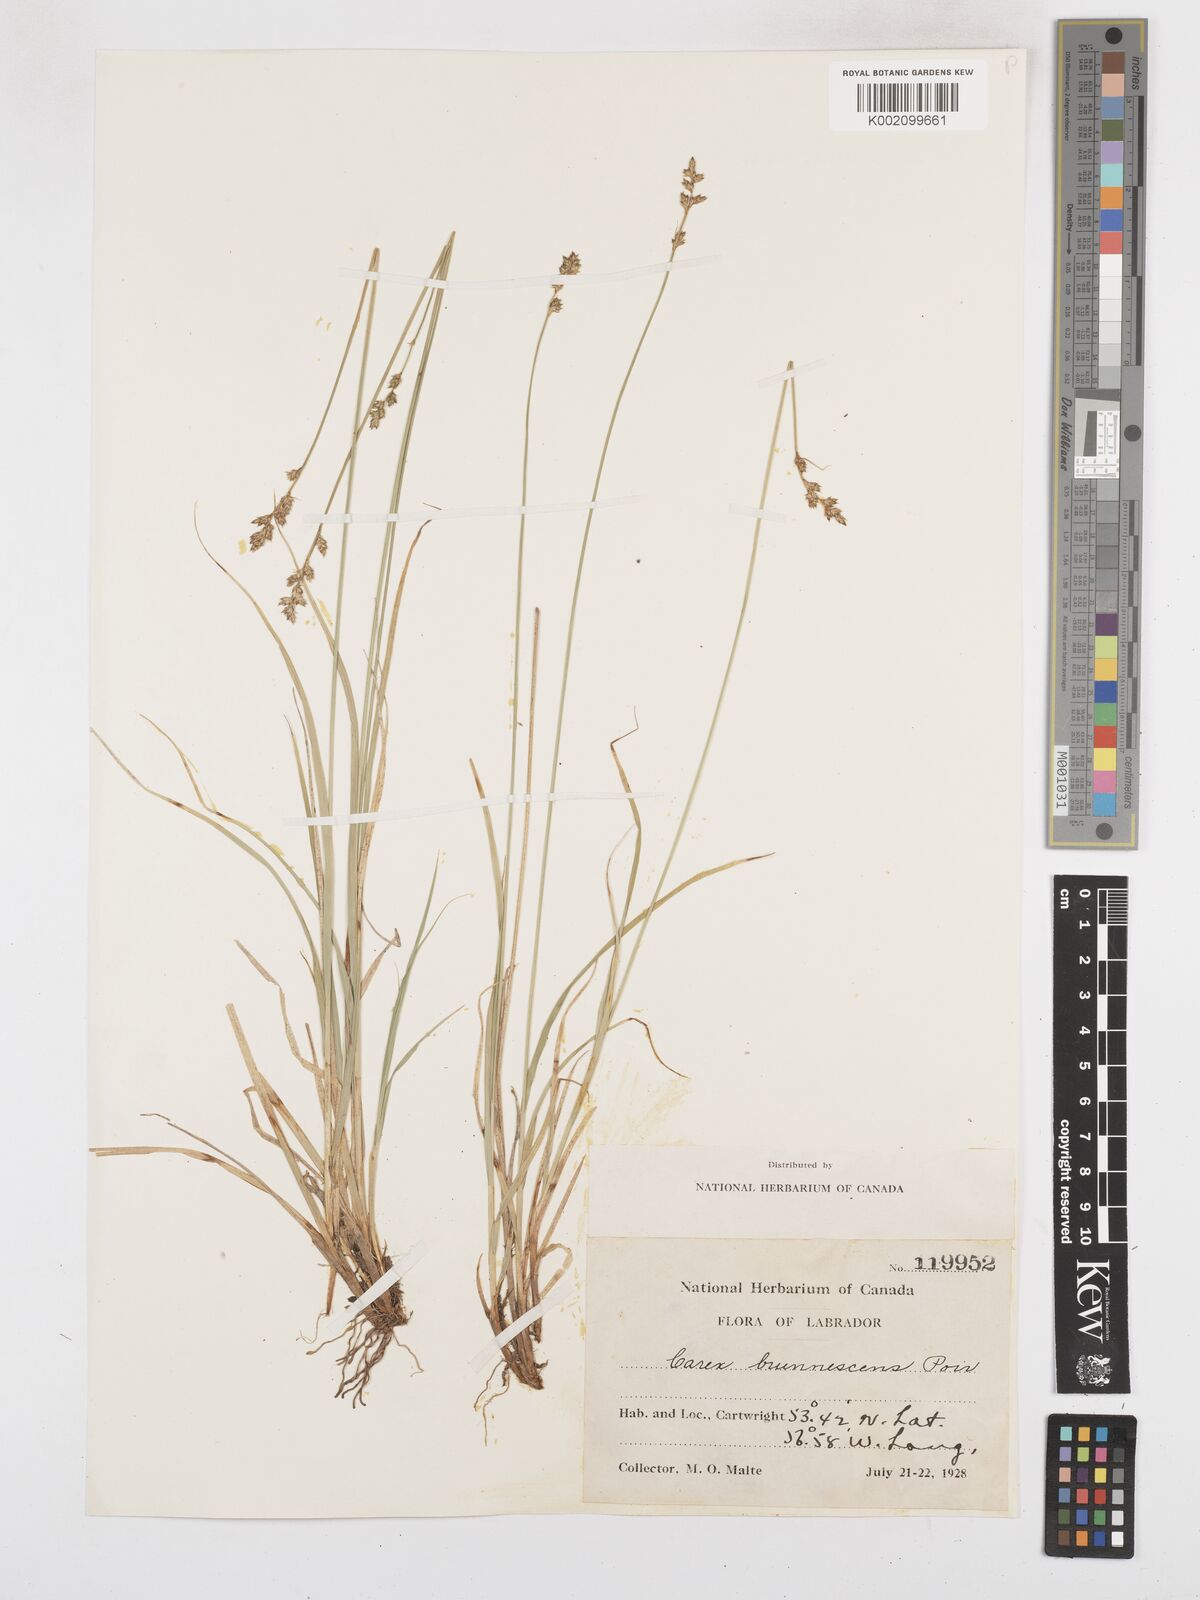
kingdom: Plantae
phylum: Tracheophyta
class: Liliopsida
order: Poales
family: Cyperaceae
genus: Carex
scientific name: Carex brunnescens
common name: Brown sedge
